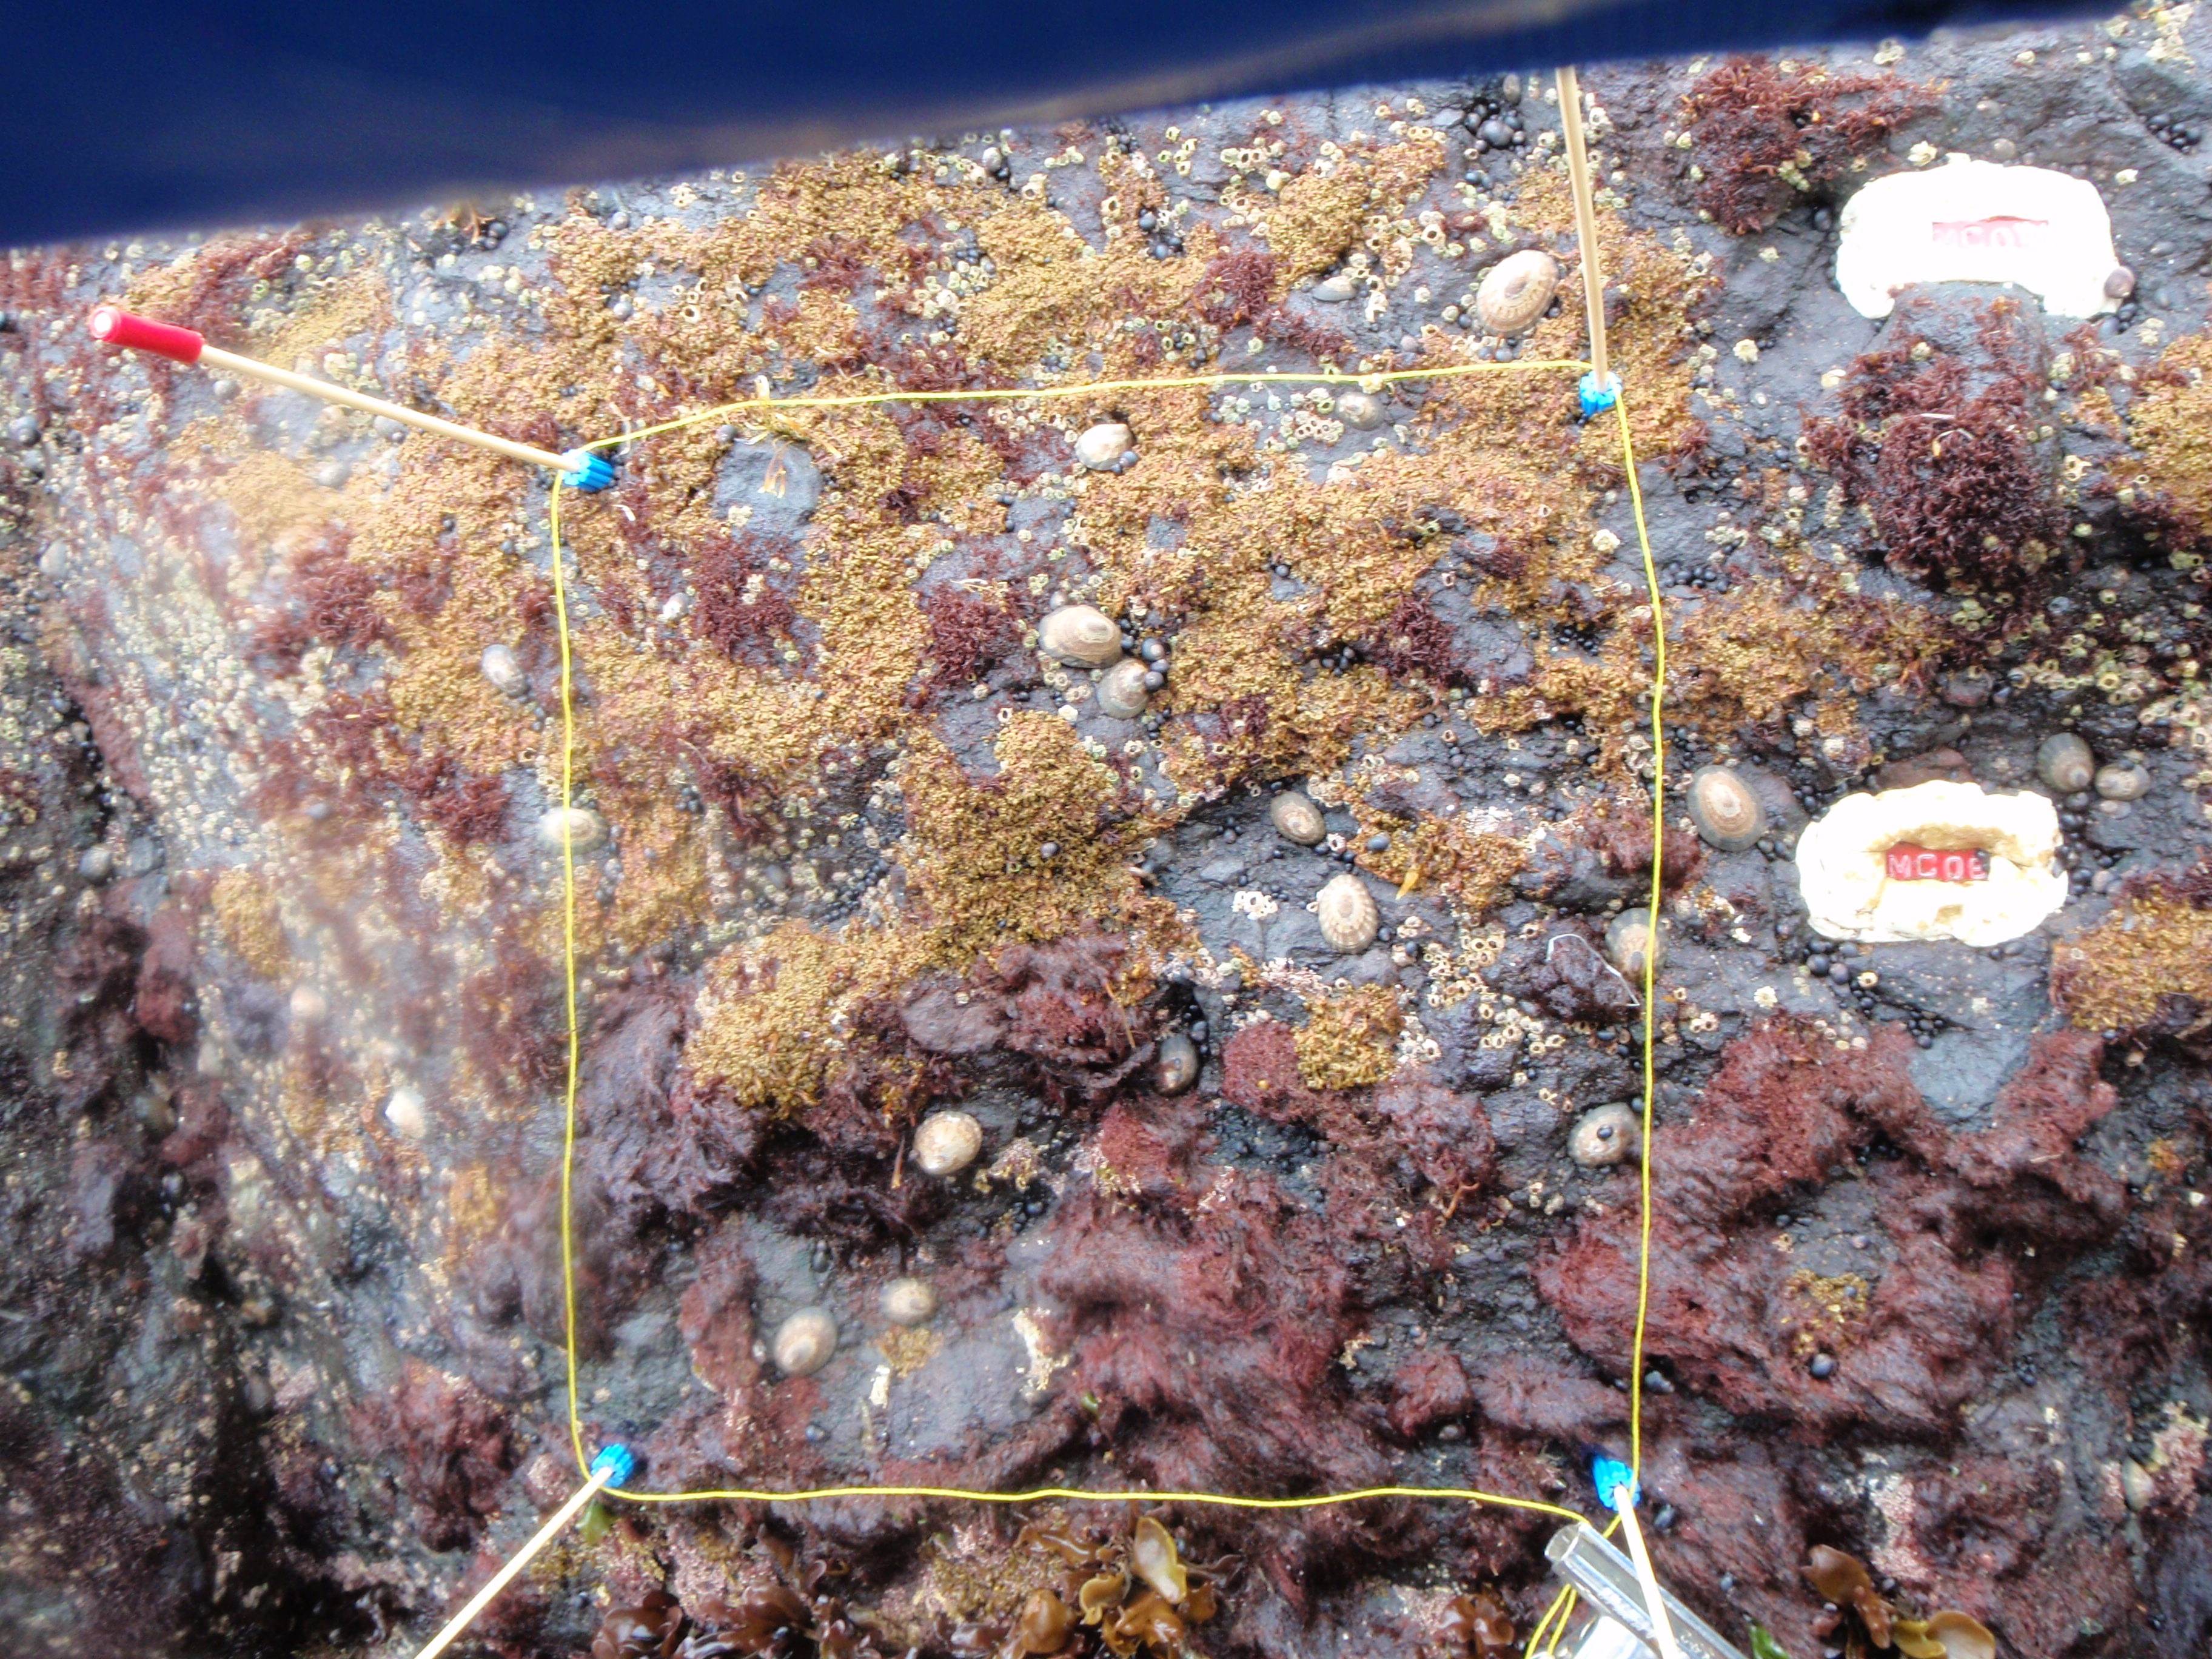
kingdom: Plantae
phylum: Rhodophyta
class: Florideophyceae
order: Gigartinales
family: Endocladiaceae
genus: Gloiopeltis
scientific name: Gloiopeltis furcata
